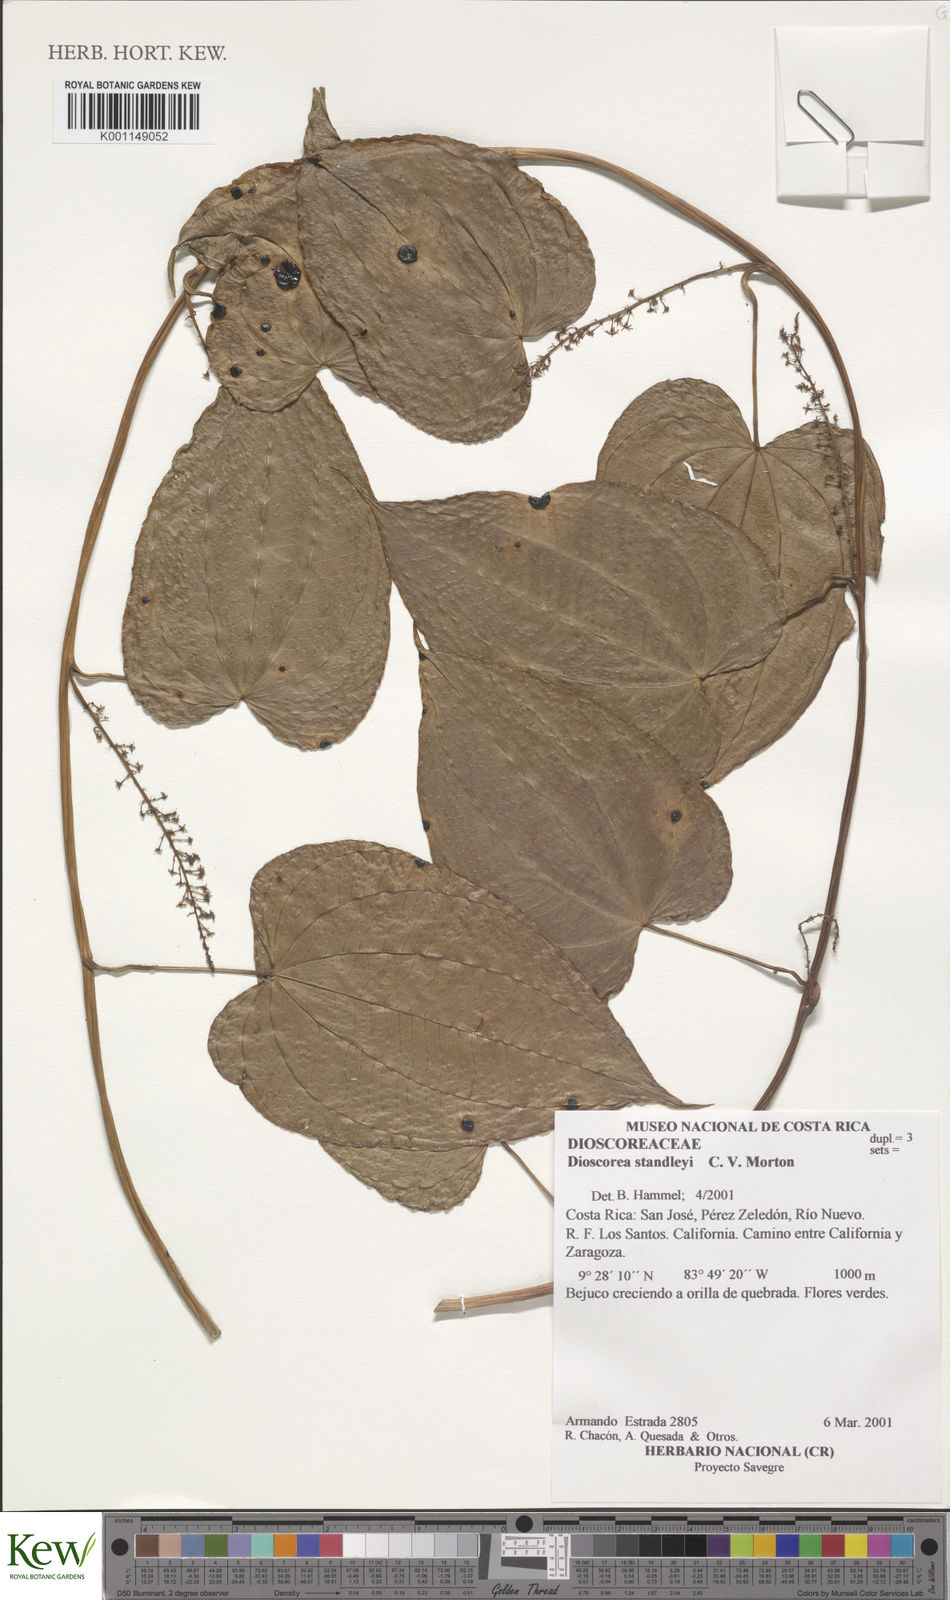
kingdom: Plantae
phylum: Tracheophyta
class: Liliopsida
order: Dioscoreales
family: Dioscoreaceae
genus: Dioscorea
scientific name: Dioscorea standleyi
